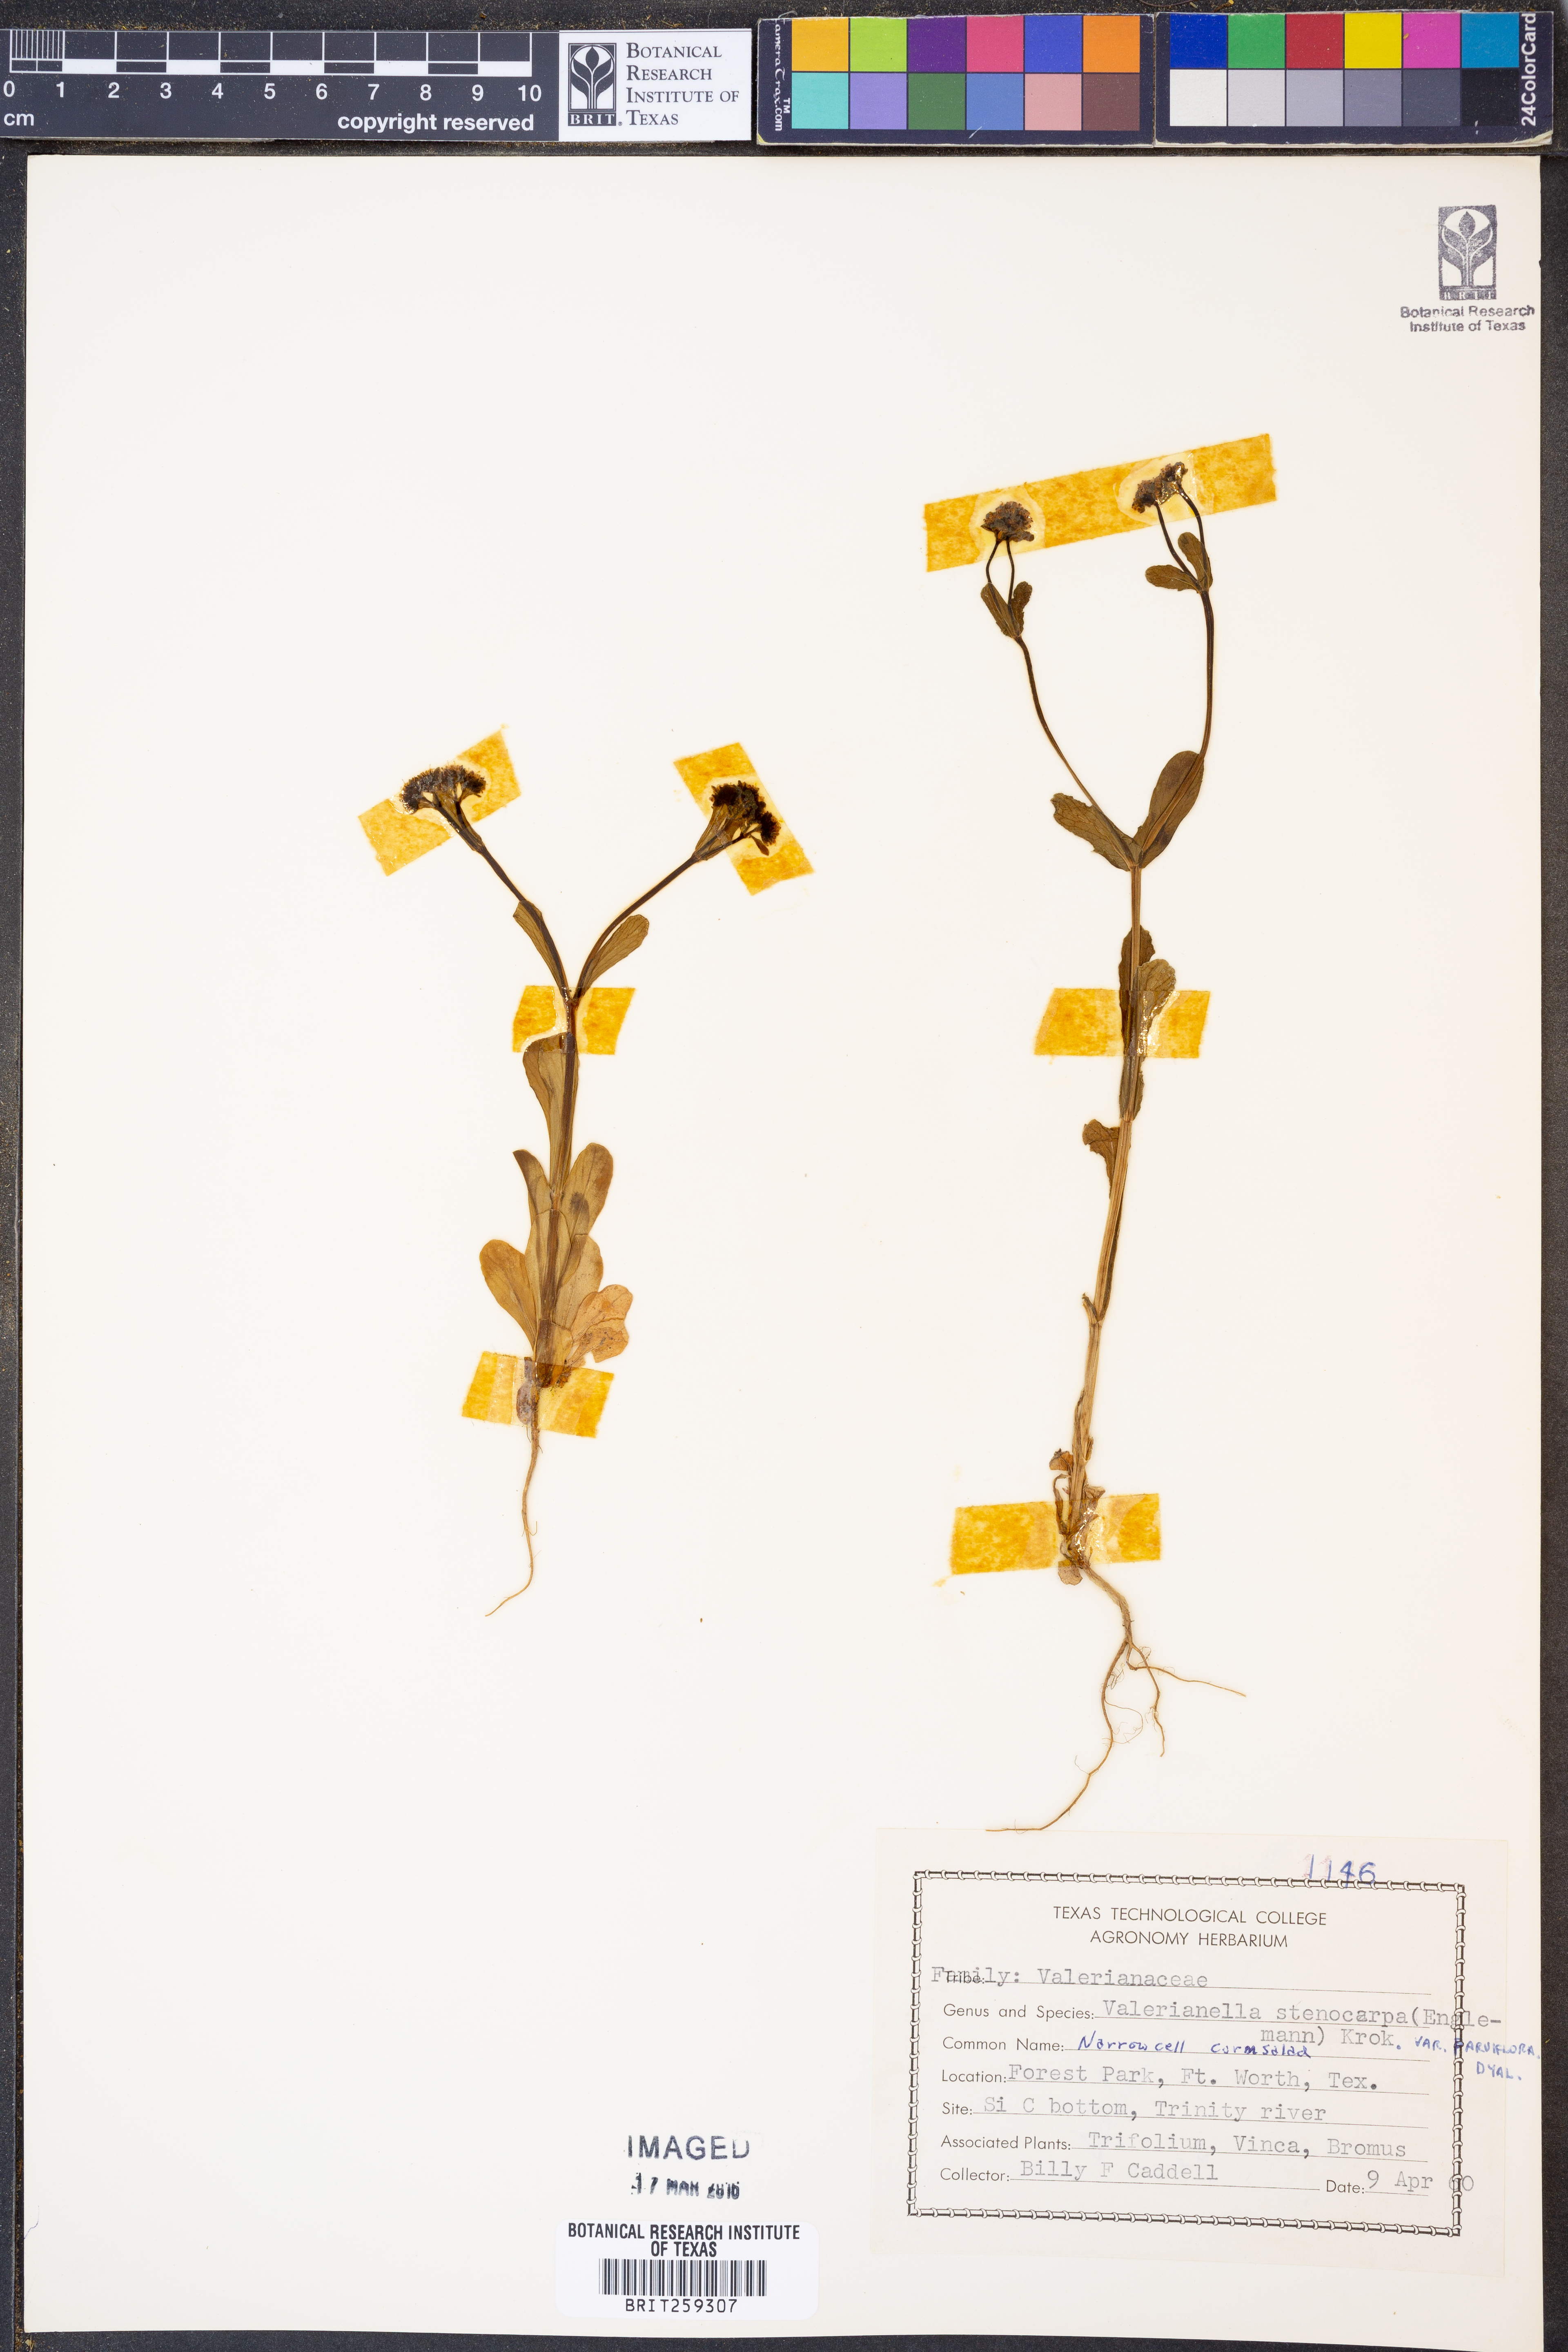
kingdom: Plantae
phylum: Tracheophyta
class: Magnoliopsida
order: Dipsacales
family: Caprifoliaceae
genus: Valerianella
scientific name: Valerianella radiata
